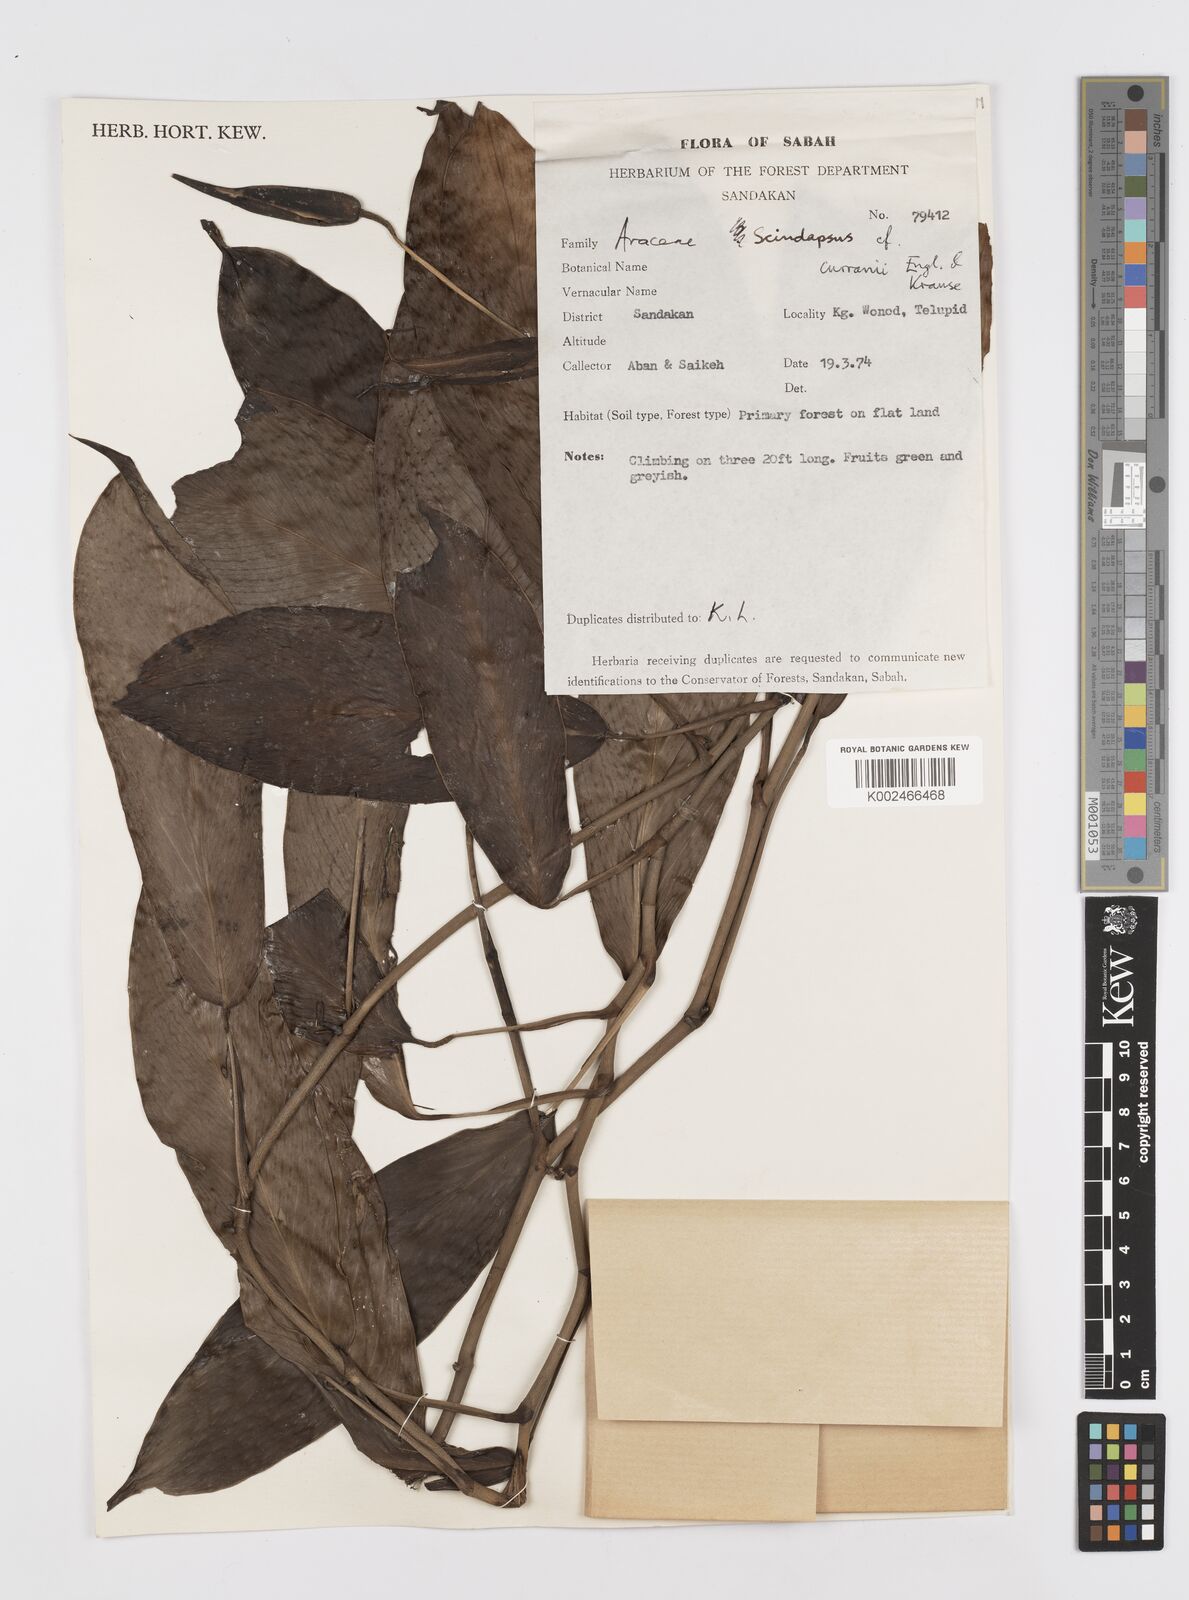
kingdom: Plantae
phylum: Tracheophyta
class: Liliopsida
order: Alismatales
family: Araceae
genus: Scindapsus
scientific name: Scindapsus curranii
